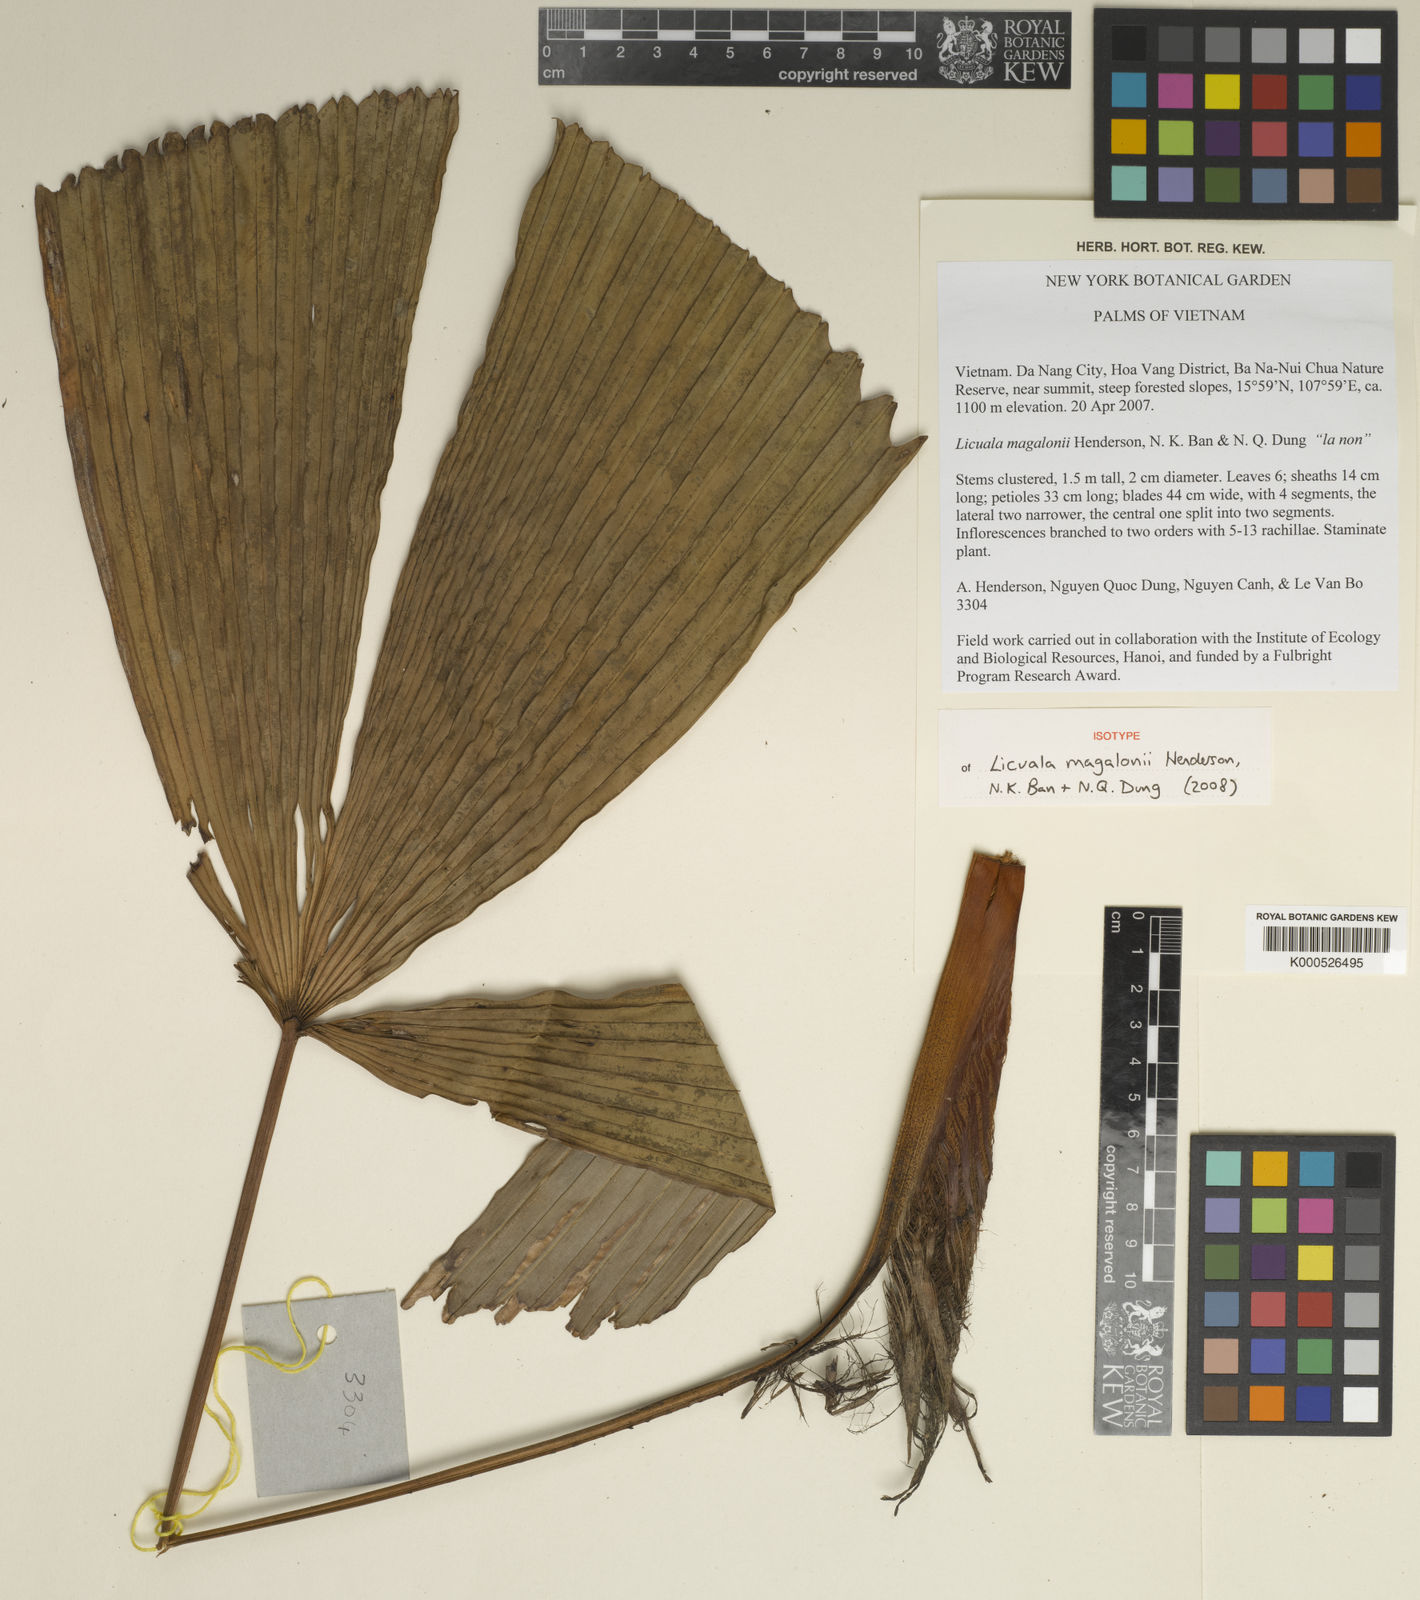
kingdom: Plantae
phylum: Tracheophyta
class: Liliopsida
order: Arecales
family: Arecaceae
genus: Licuala
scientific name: Licuala
